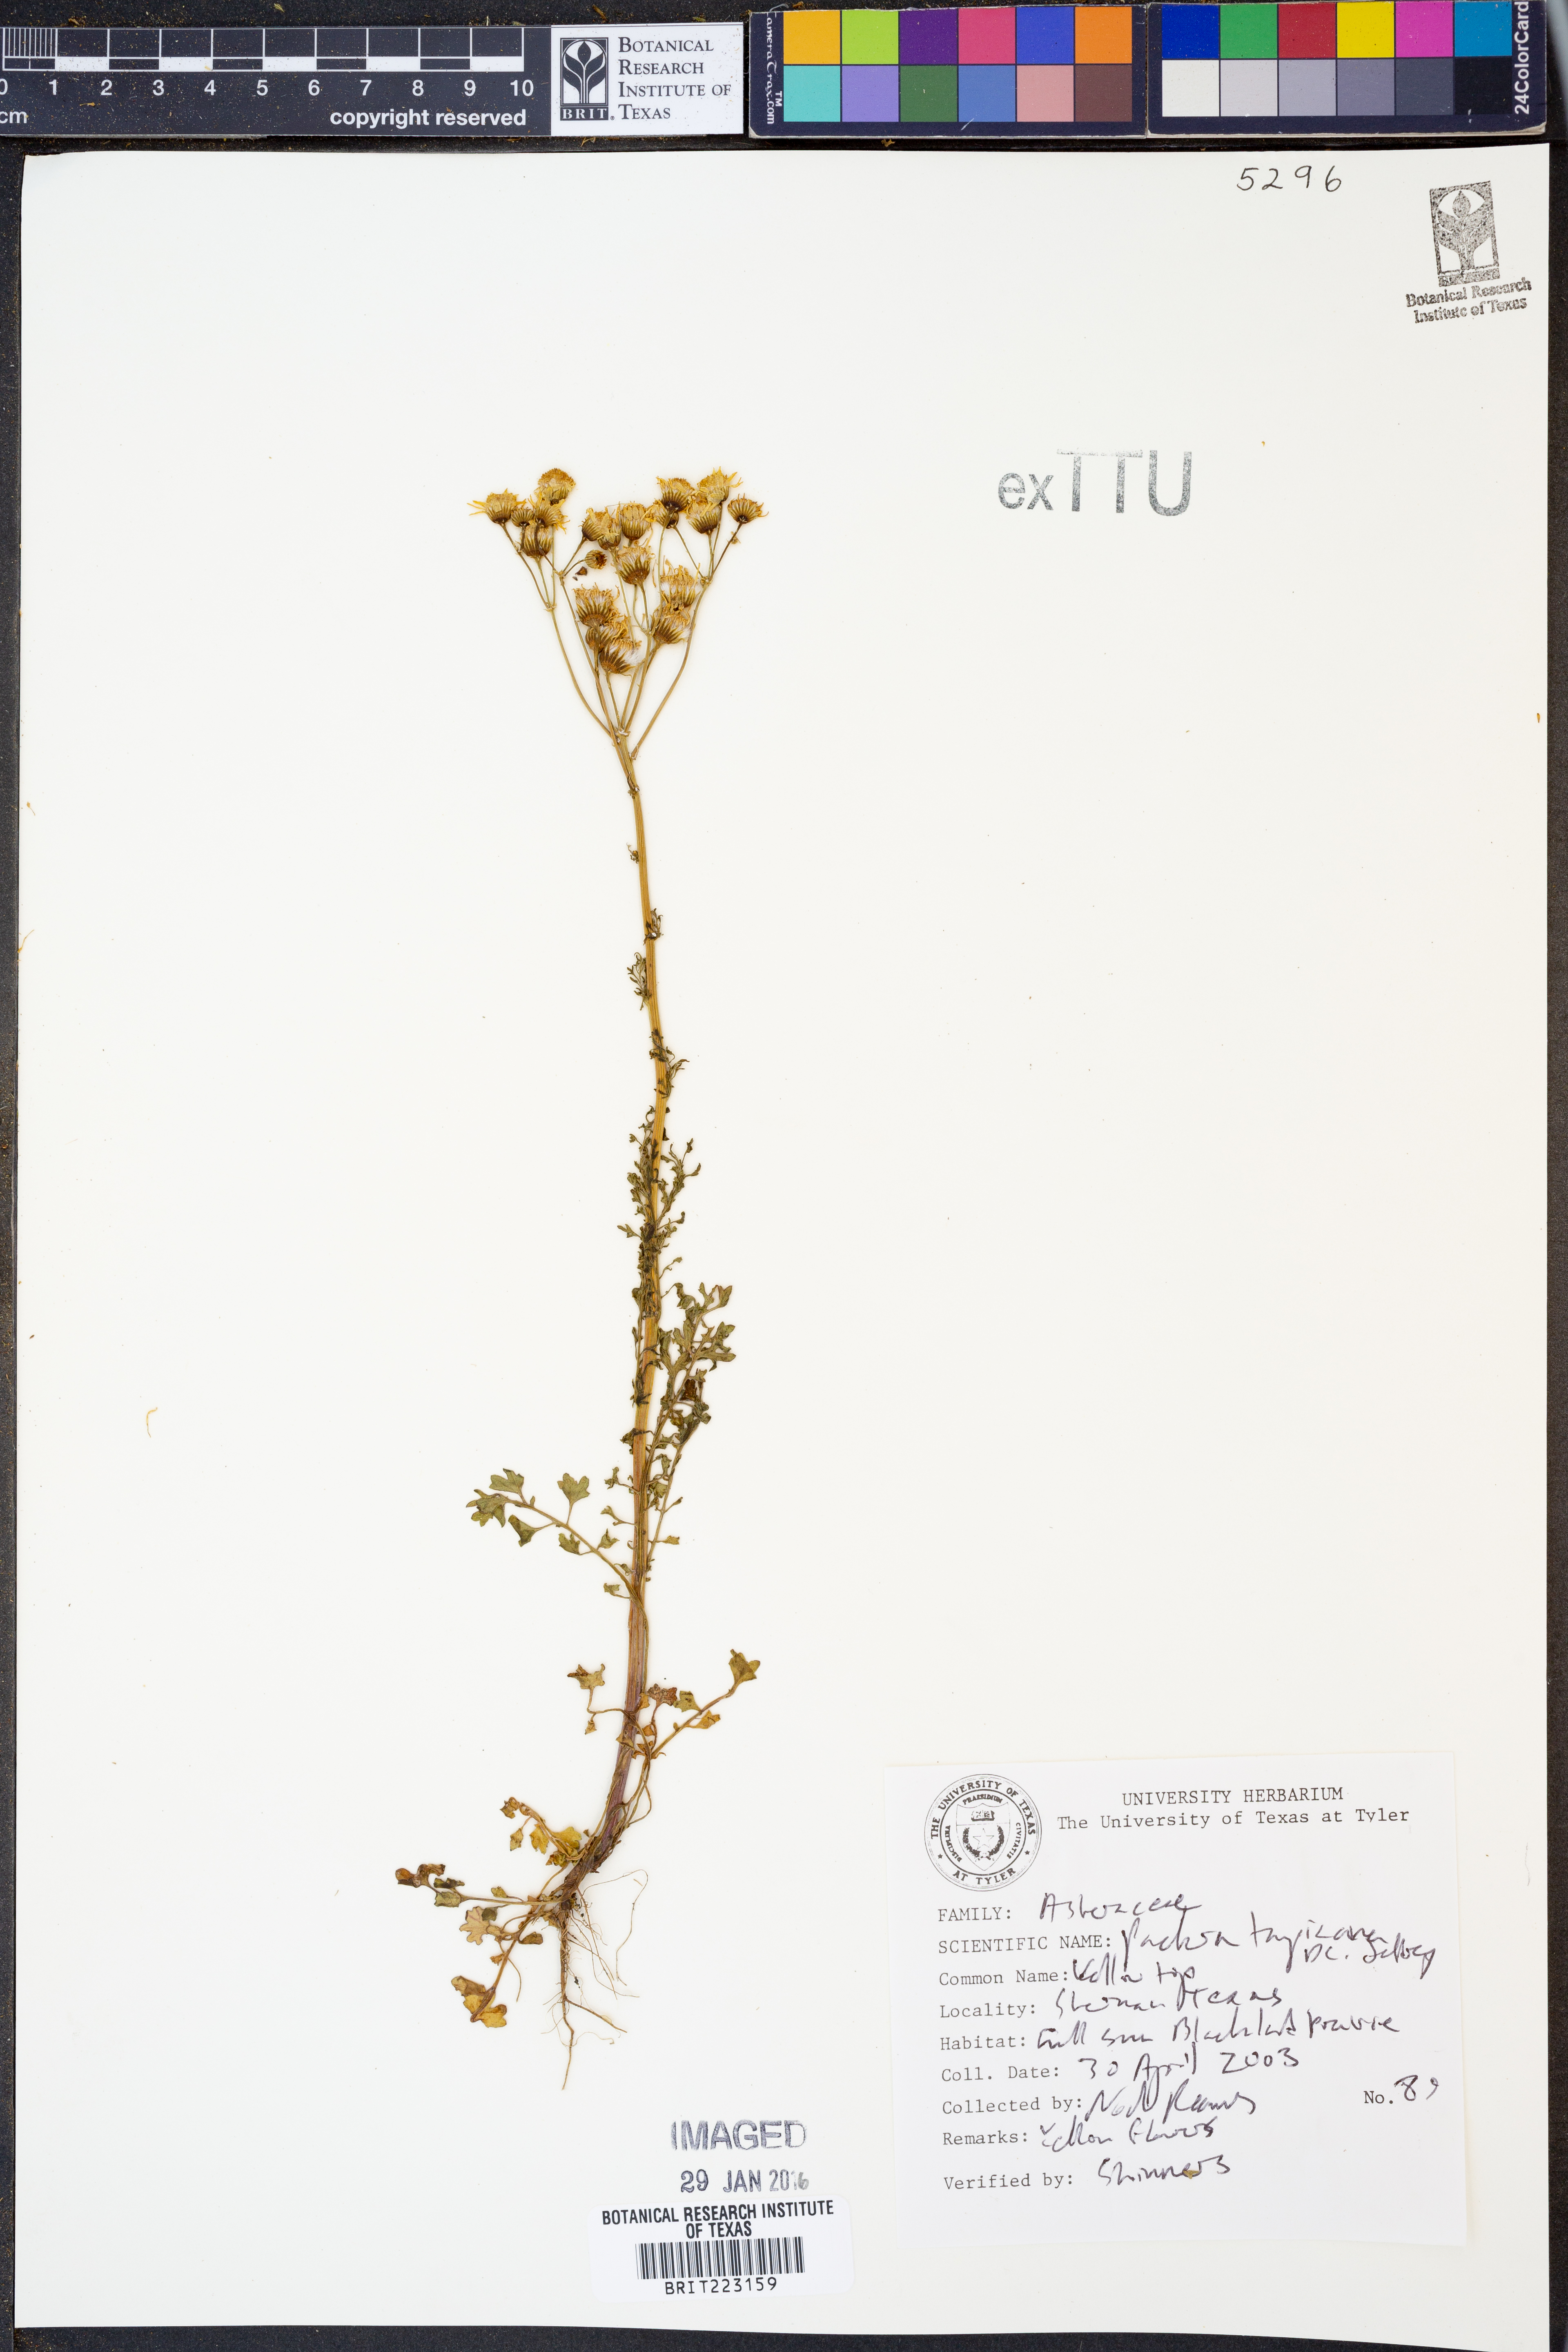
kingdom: Plantae
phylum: Tracheophyta
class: Magnoliopsida
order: Asterales
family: Asteraceae
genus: Packera
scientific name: Packera tampicana
